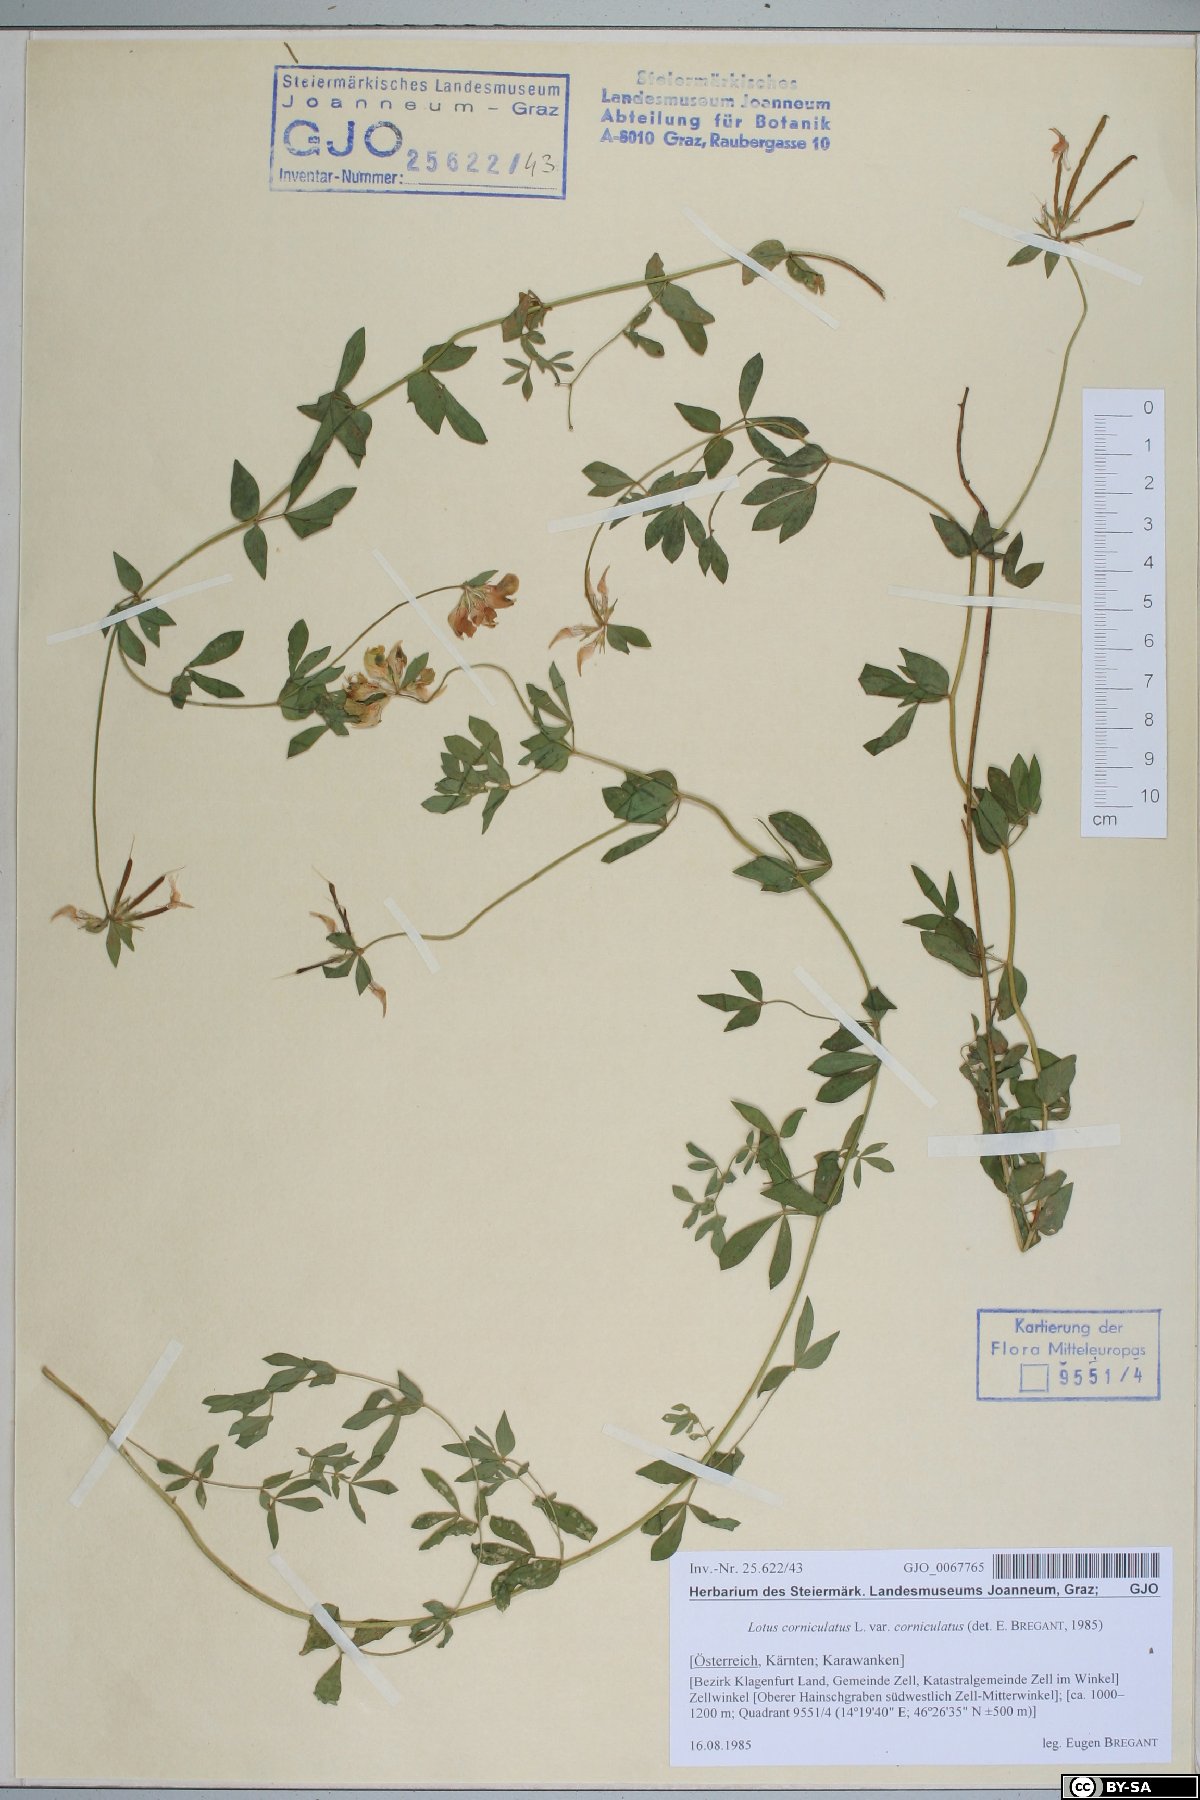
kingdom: Plantae
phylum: Tracheophyta
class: Magnoliopsida
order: Fabales
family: Fabaceae
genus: Lotus
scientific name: Lotus corniculatus
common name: Common bird's-foot-trefoil
